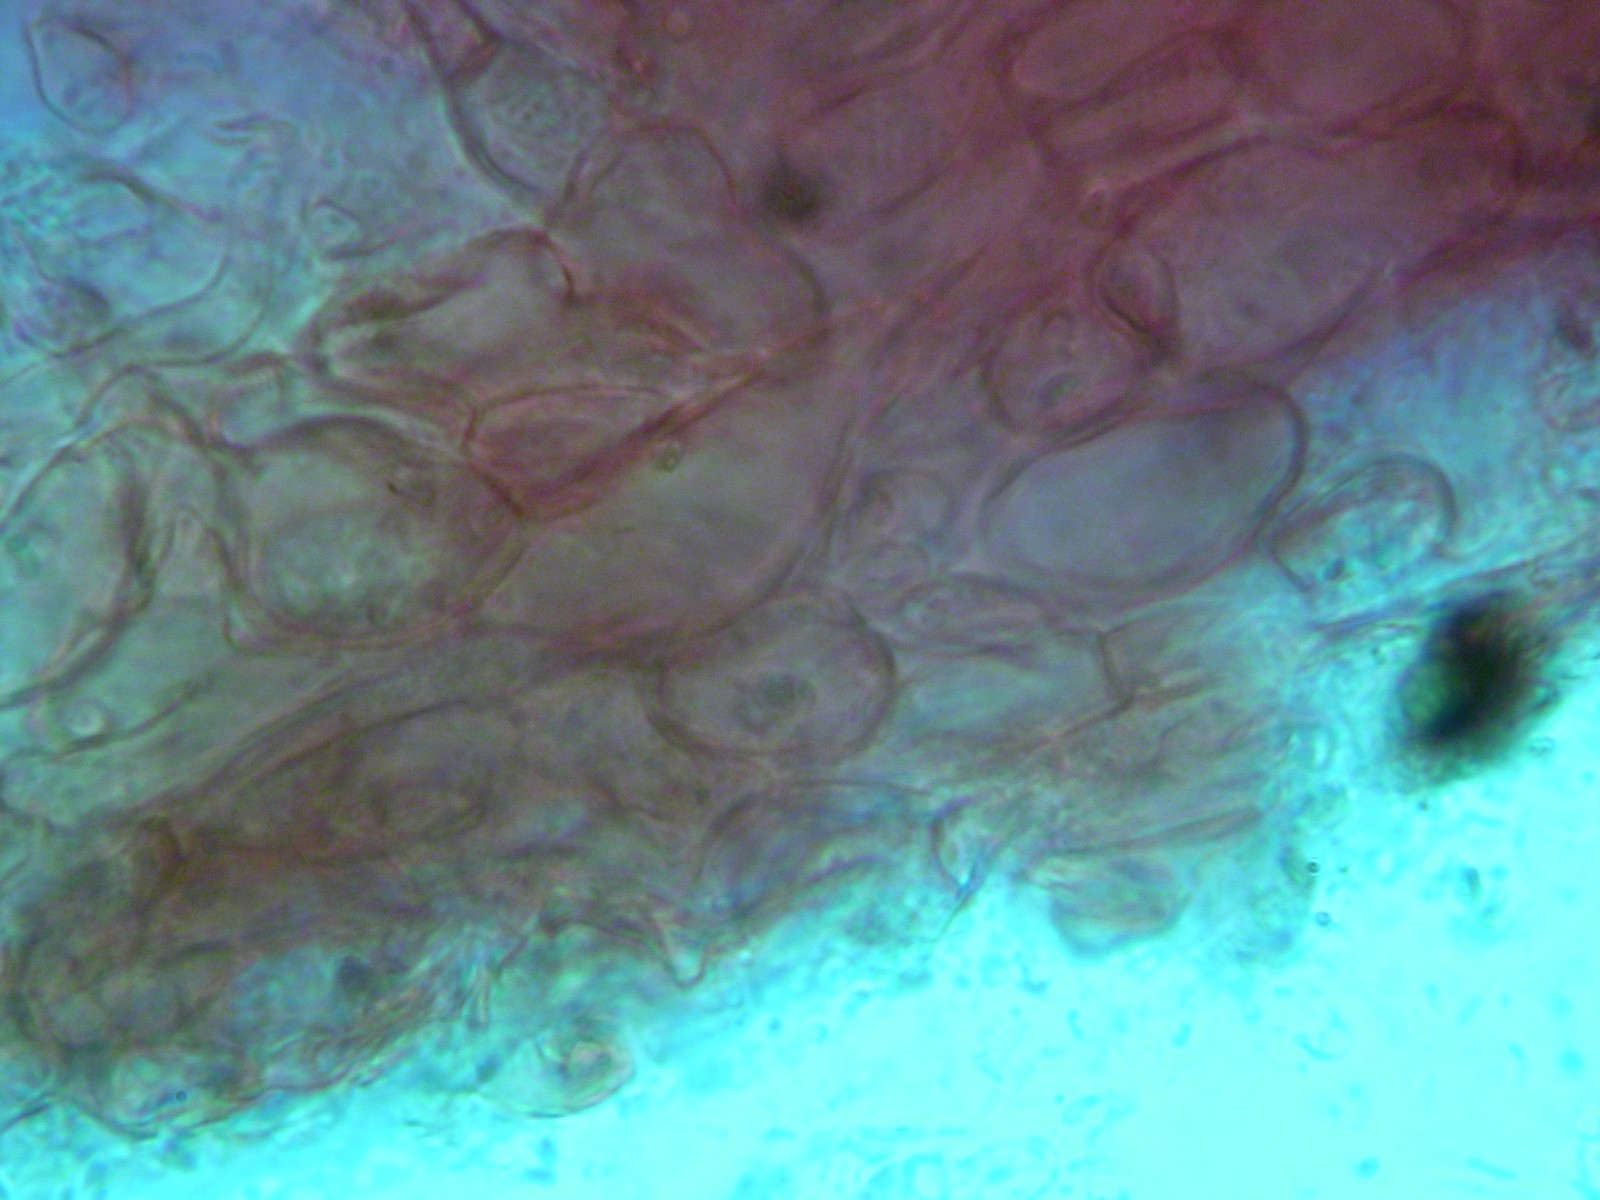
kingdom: Fungi
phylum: Ascomycota
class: Pezizomycetes
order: Pezizales
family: Tuberaceae
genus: Tuber
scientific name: Tuber dryophilum
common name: Wood truffle
